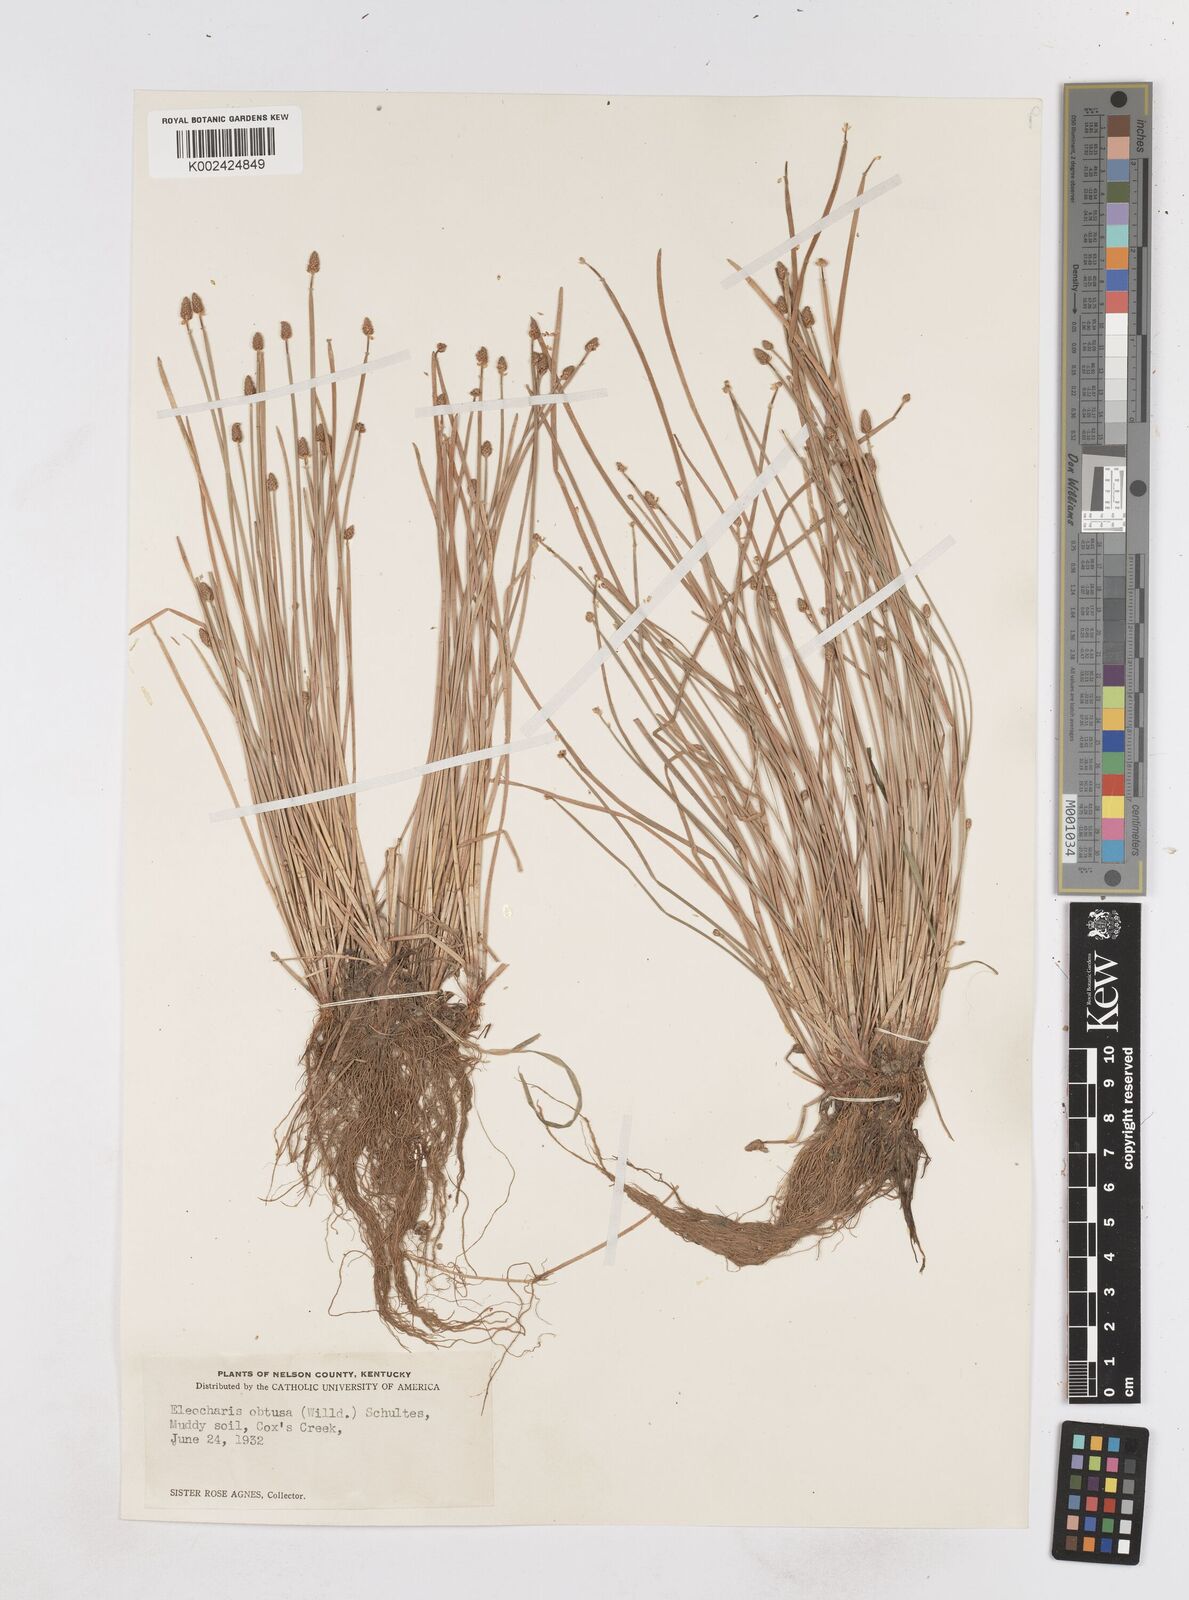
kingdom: Plantae
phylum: Tracheophyta
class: Liliopsida
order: Poales
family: Cyperaceae
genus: Eleocharis
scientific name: Eleocharis obtusa
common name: Blunt spikerush
